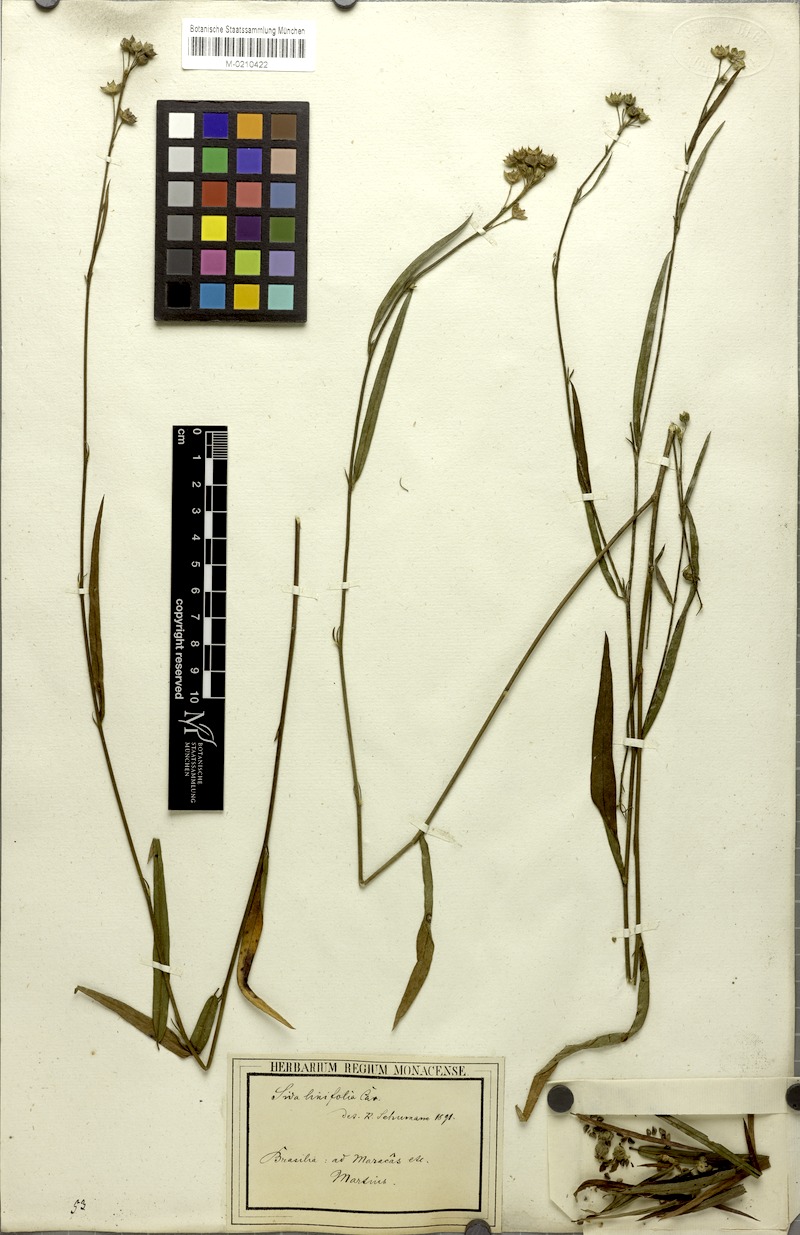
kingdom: Plantae
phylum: Tracheophyta
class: Magnoliopsida
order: Malvales
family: Malvaceae
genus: Sida
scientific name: Sida linifolia
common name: Flaxleaf fanpetals
